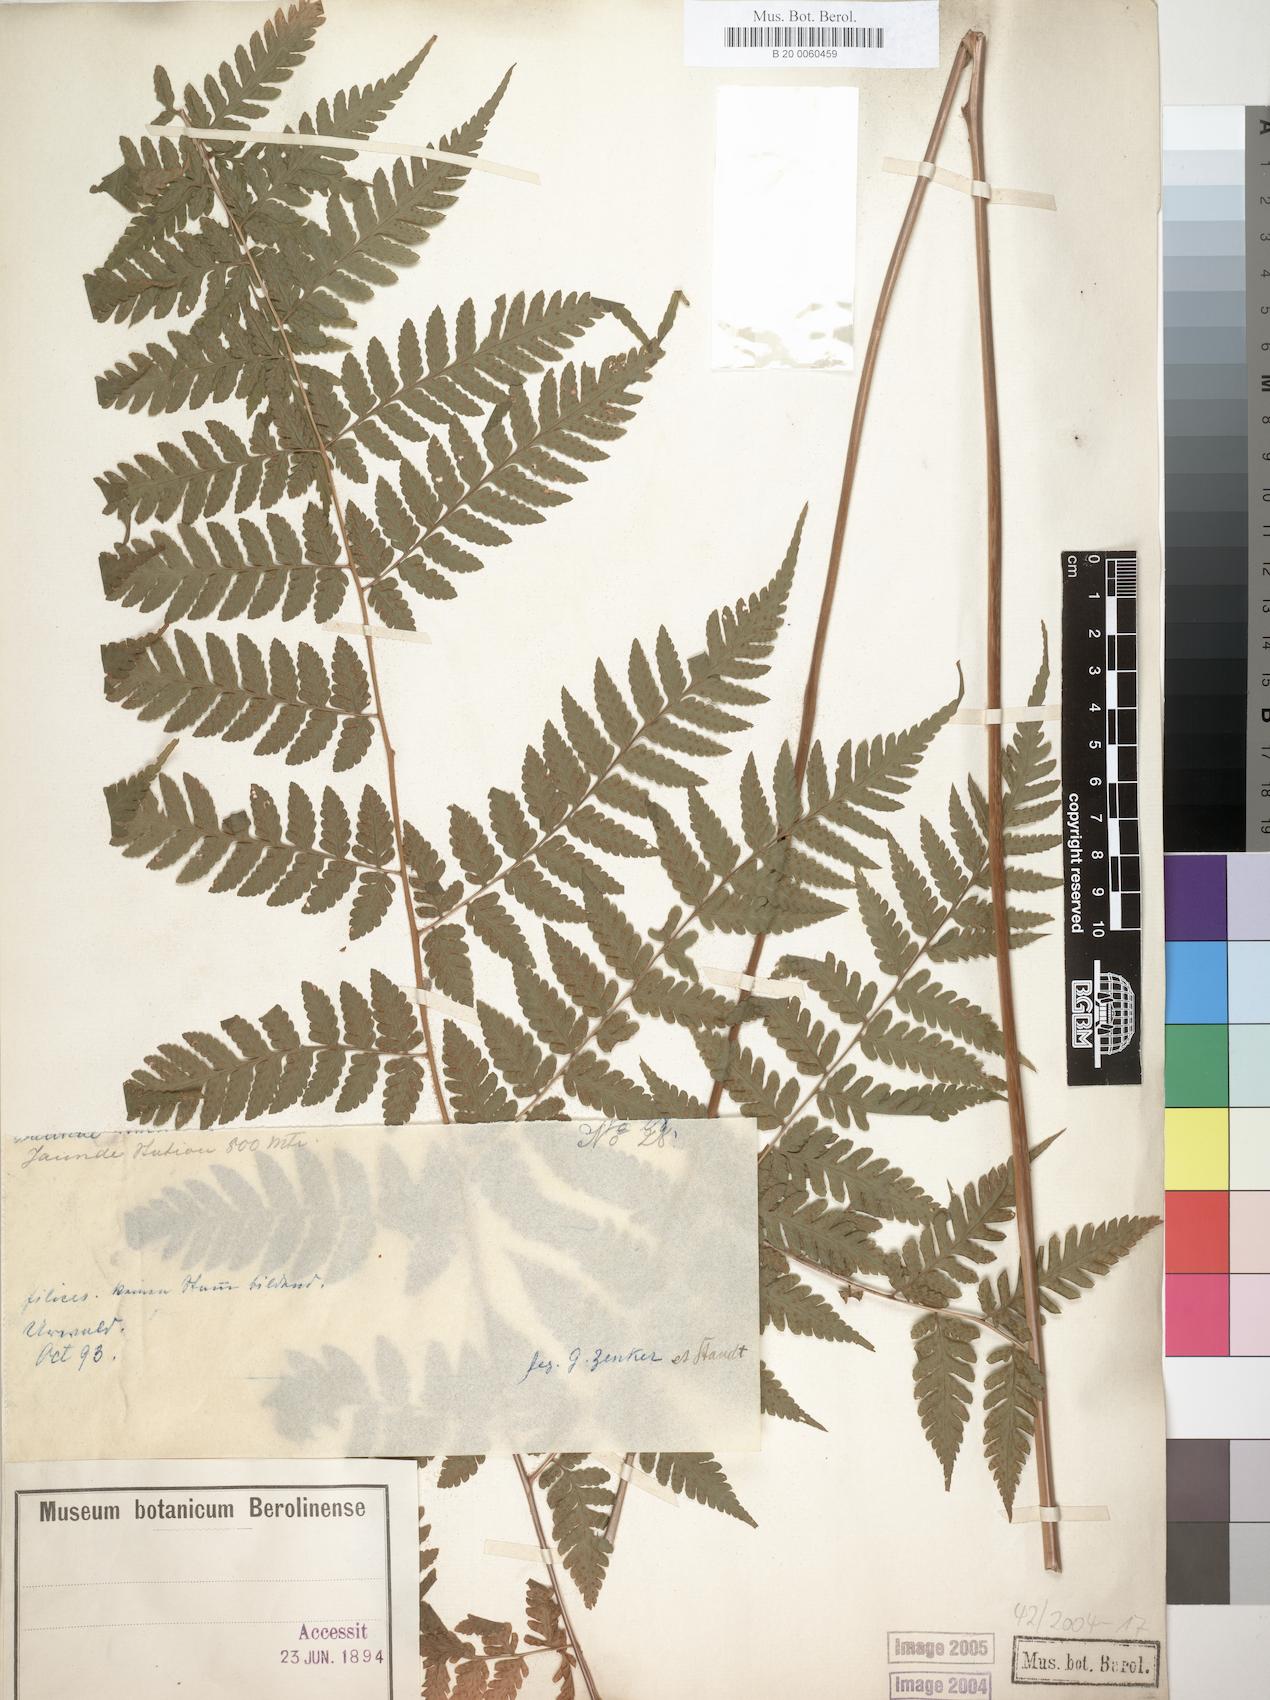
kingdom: Plantae
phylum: Tracheophyta
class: Polypodiopsida
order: Polypodiales
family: Dryopteridaceae
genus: Parapolystichum
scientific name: Parapolystichum nigritianum
